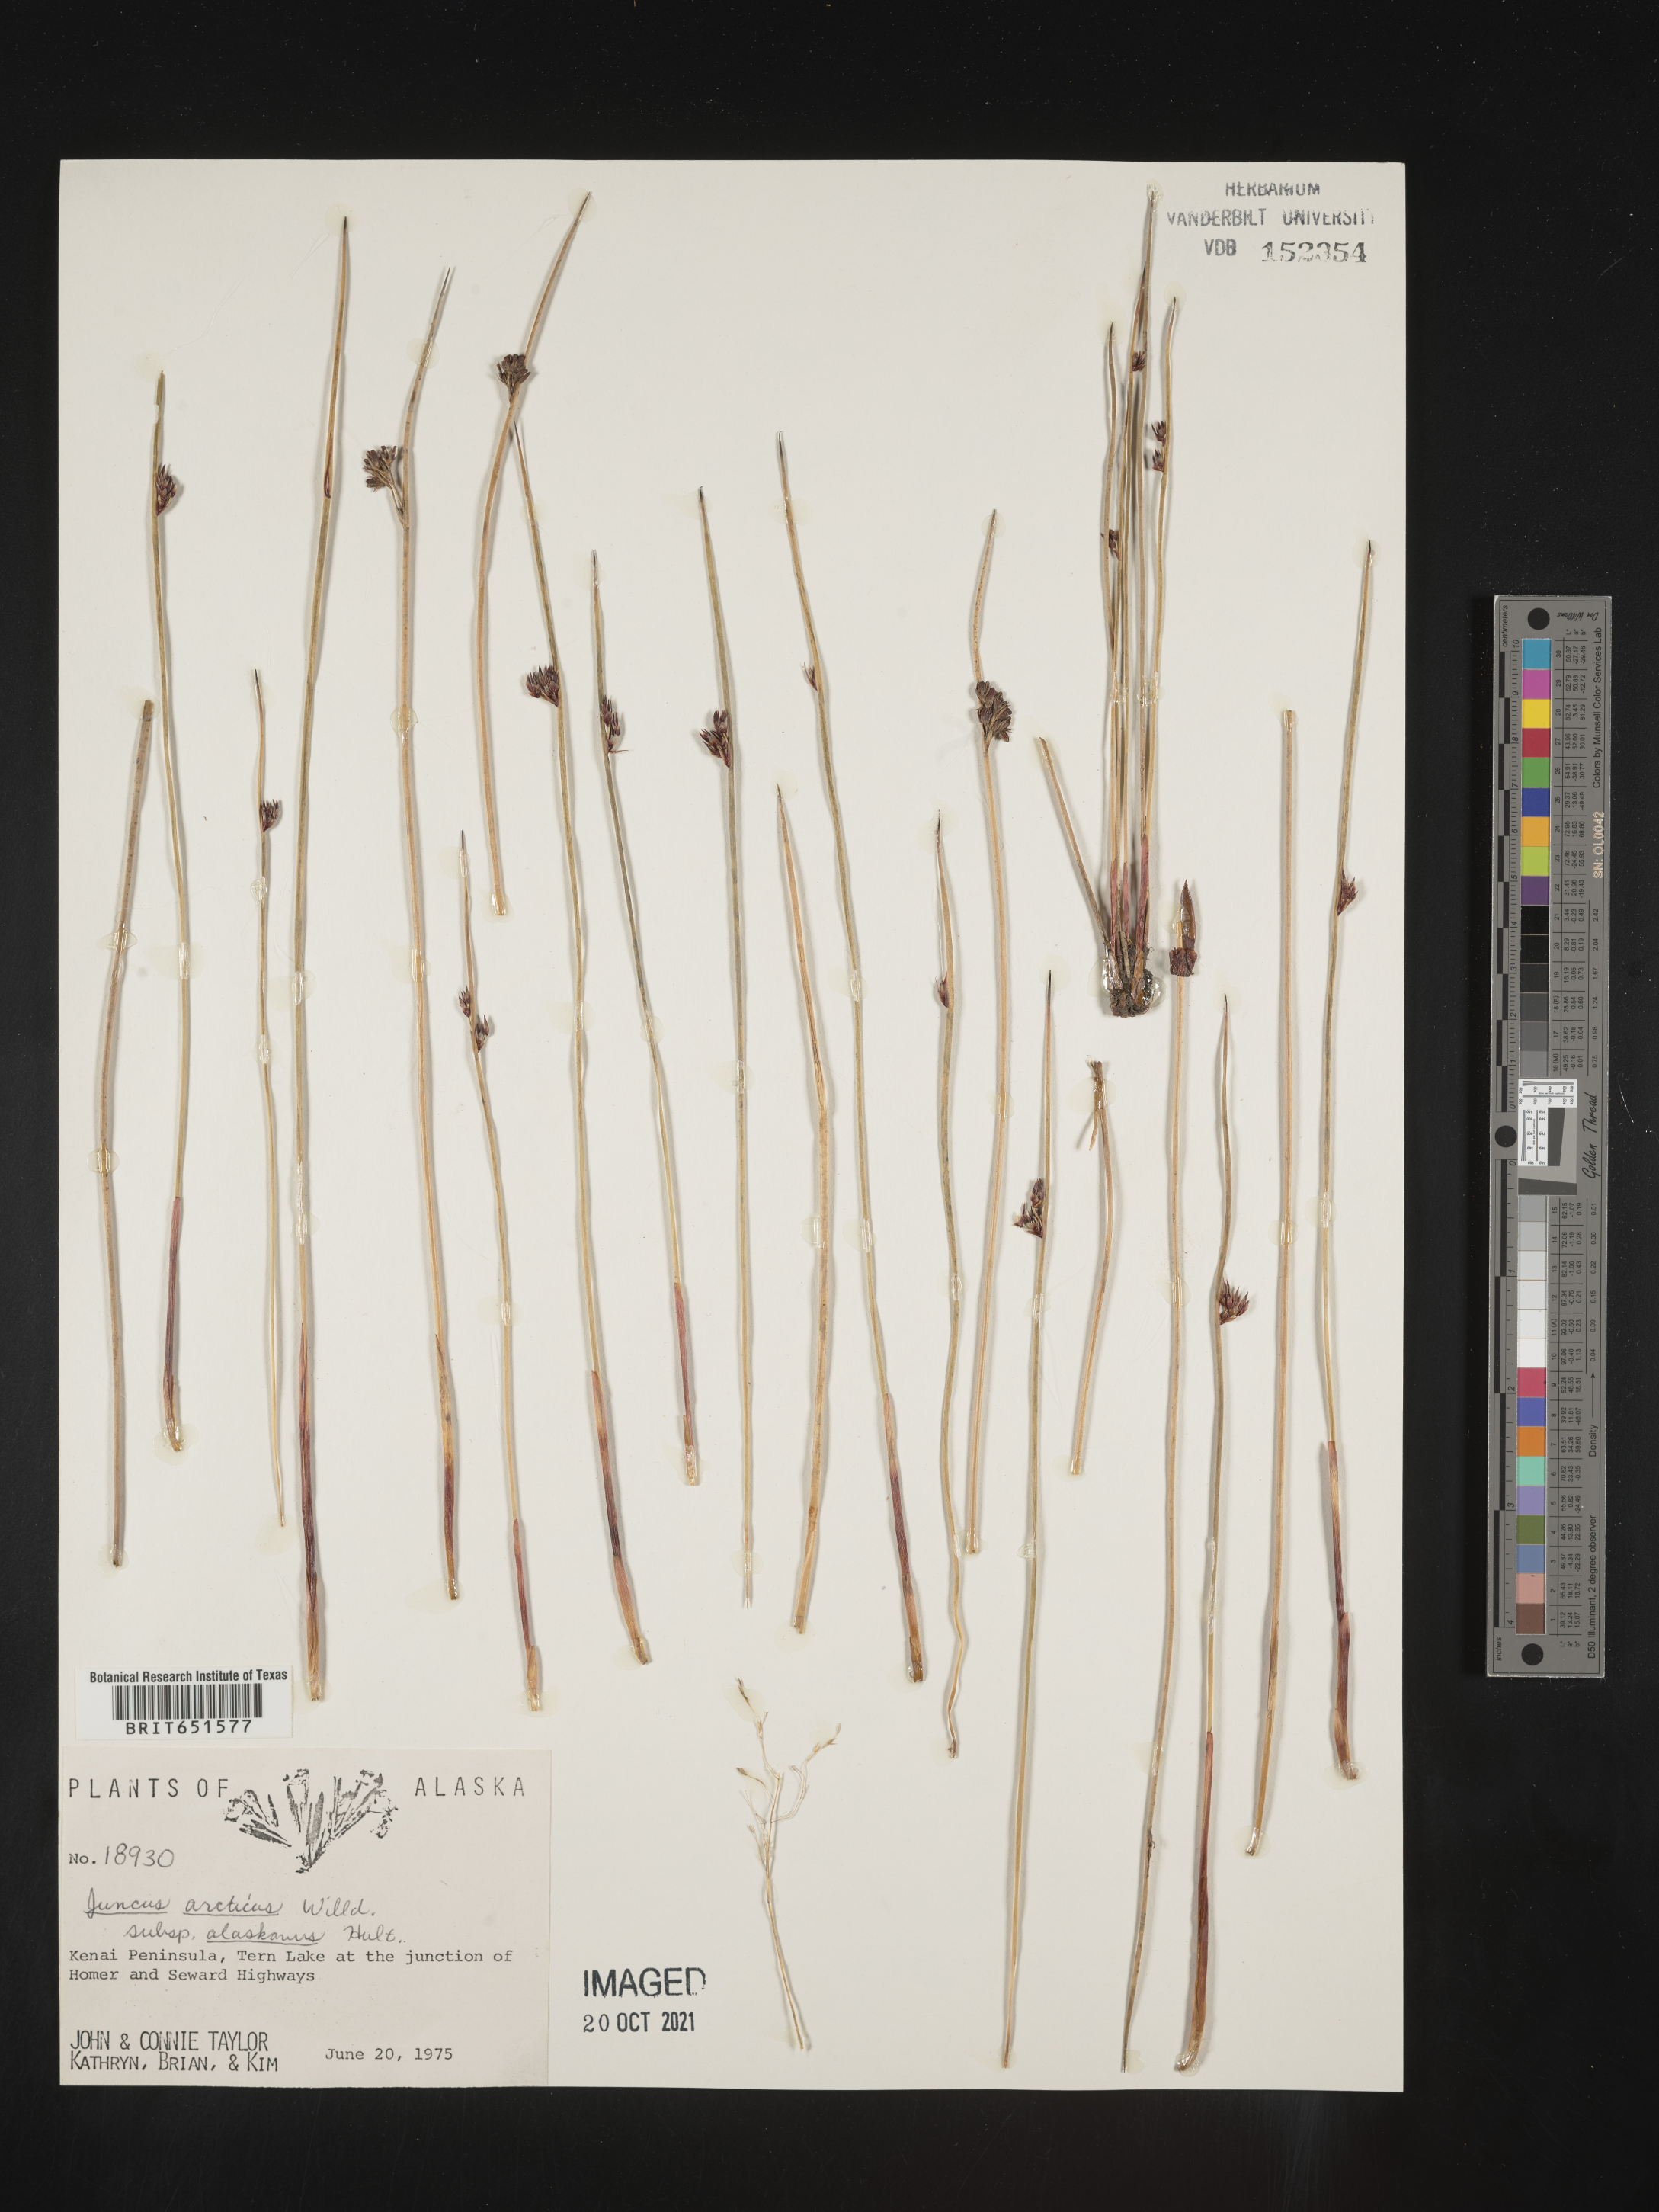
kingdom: Plantae
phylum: Tracheophyta
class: Liliopsida
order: Poales
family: Juncaceae
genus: Juncus
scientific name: Juncus arcticus
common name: Arctic rush
